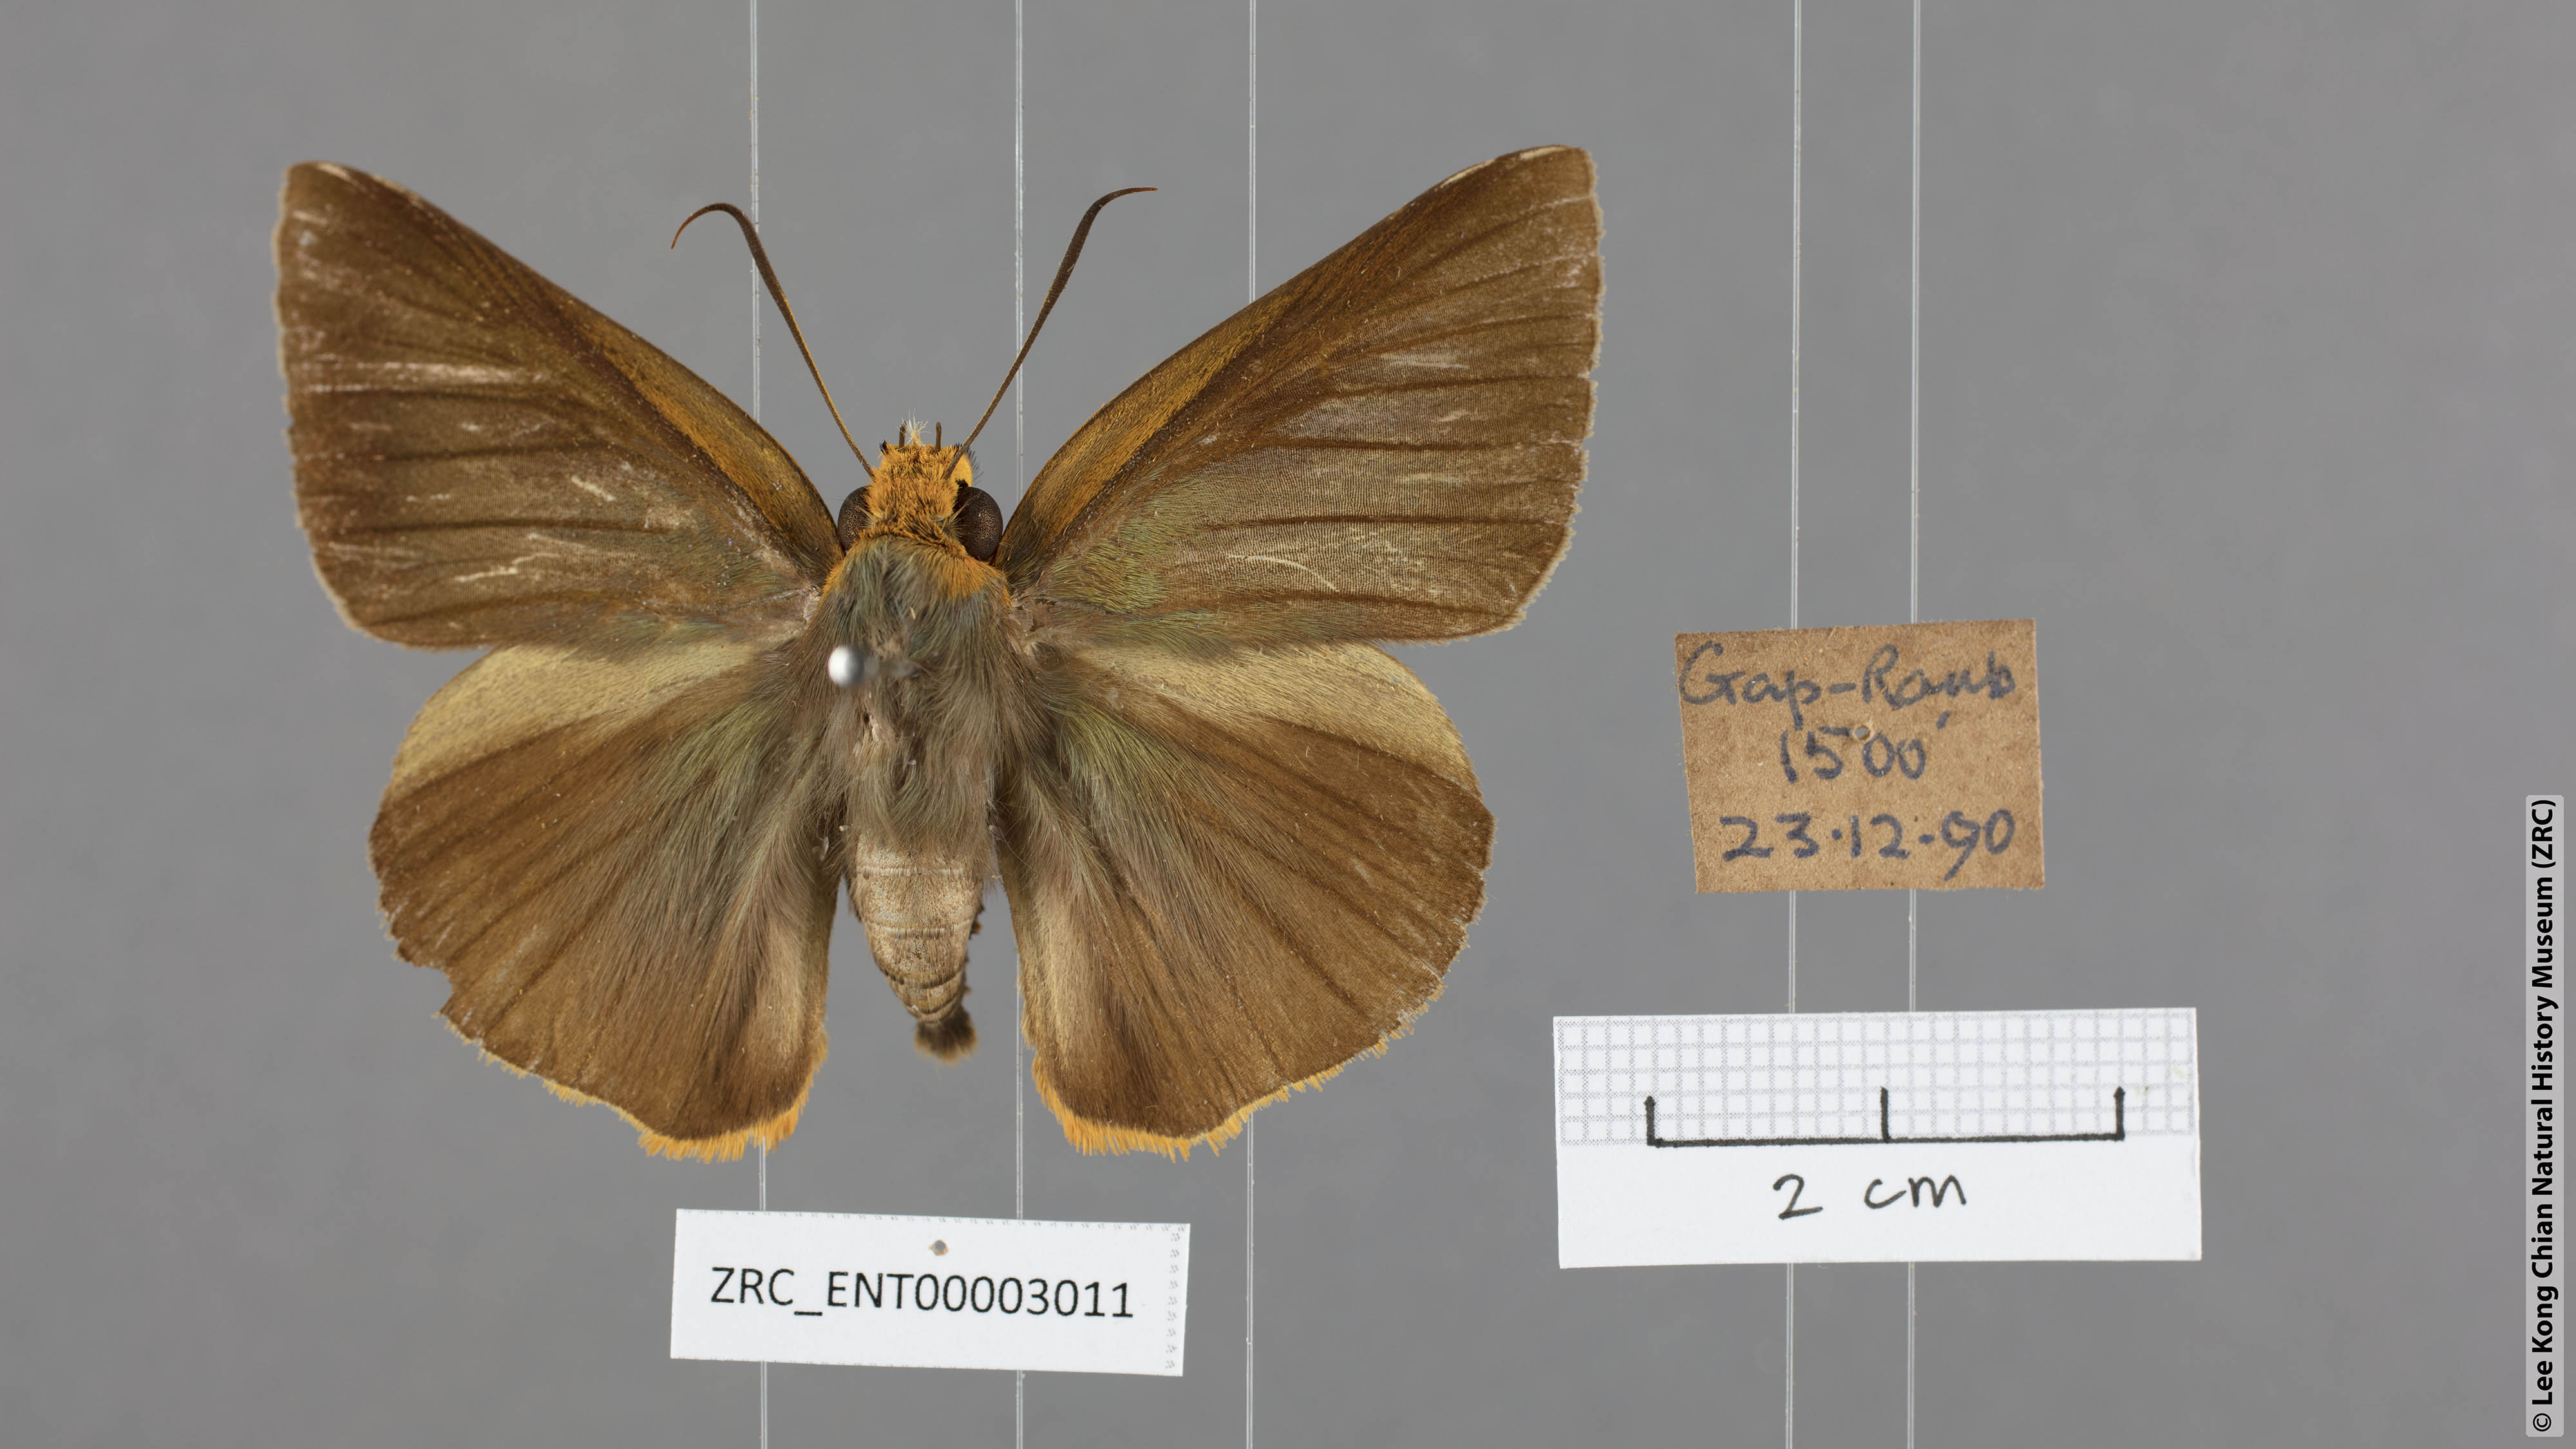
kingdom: Animalia
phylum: Arthropoda
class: Insecta
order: Lepidoptera
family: Hesperiidae
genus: Bibasis
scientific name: Bibasis etelka
